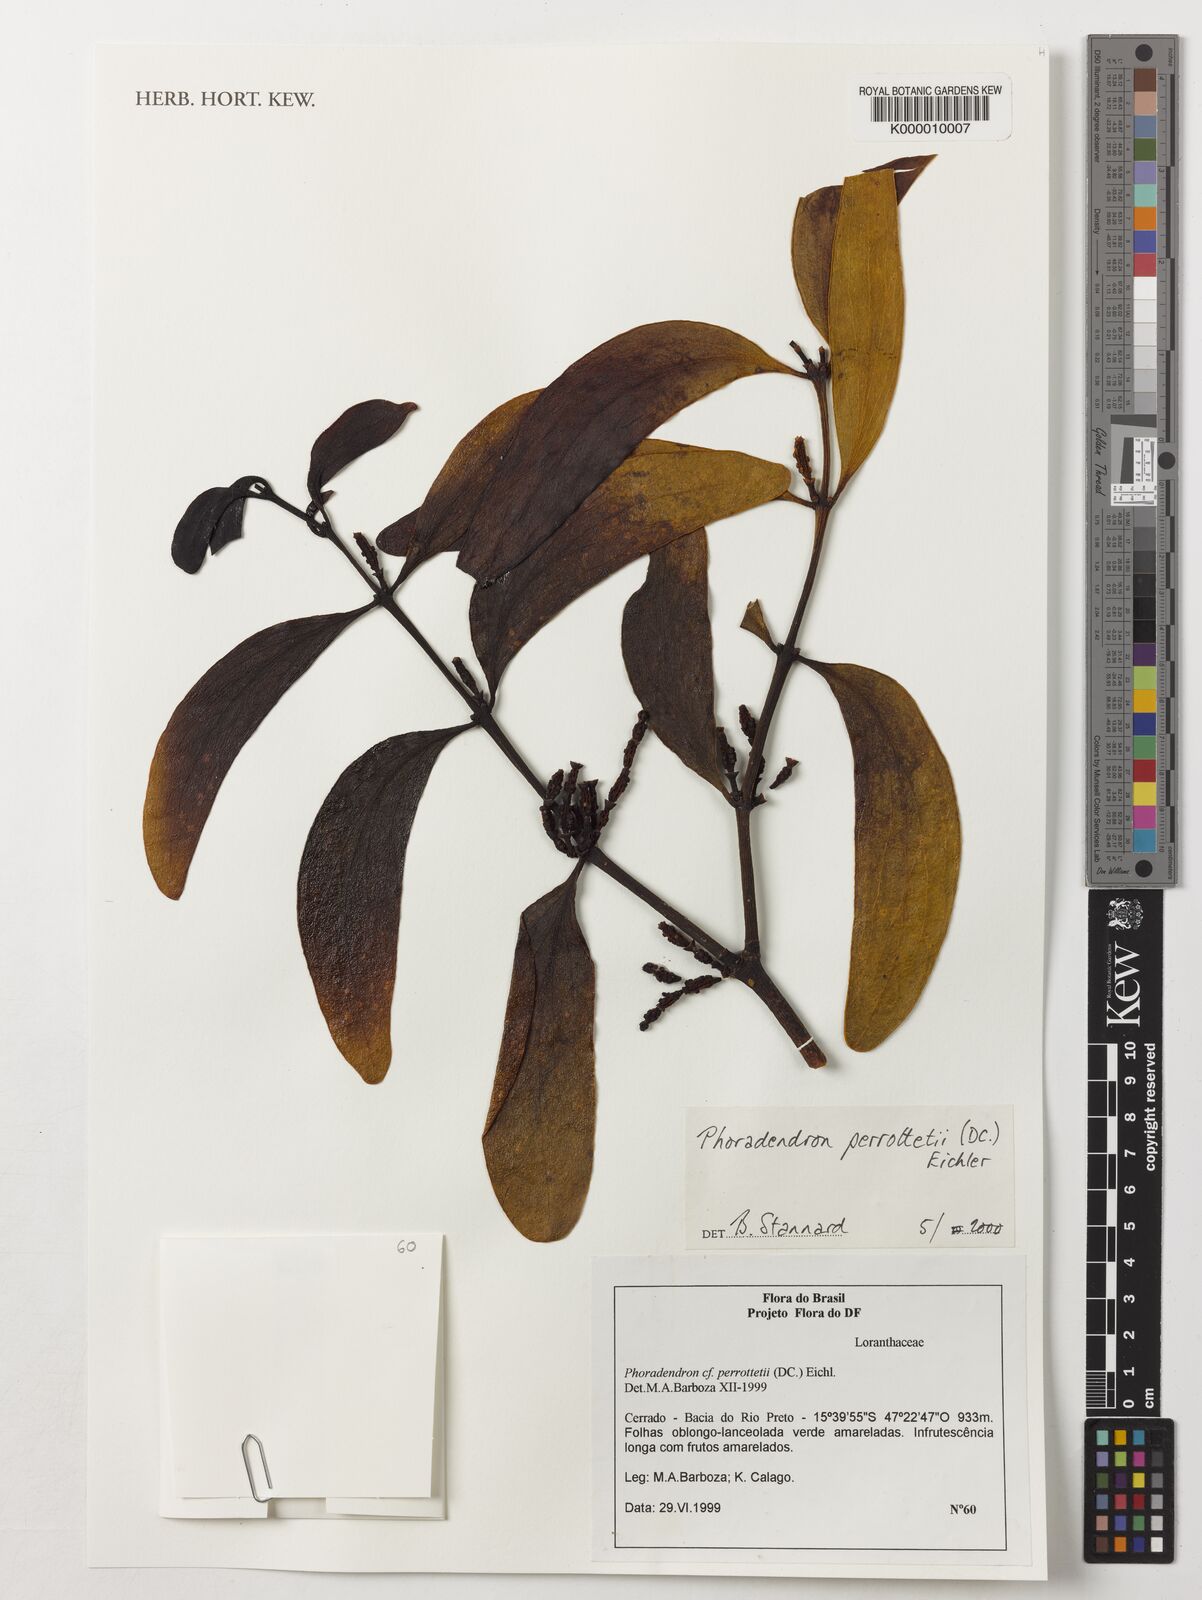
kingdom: Plantae
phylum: Tracheophyta
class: Magnoliopsida
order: Santalales
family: Viscaceae
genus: Phoradendron
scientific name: Phoradendron perrottetii
